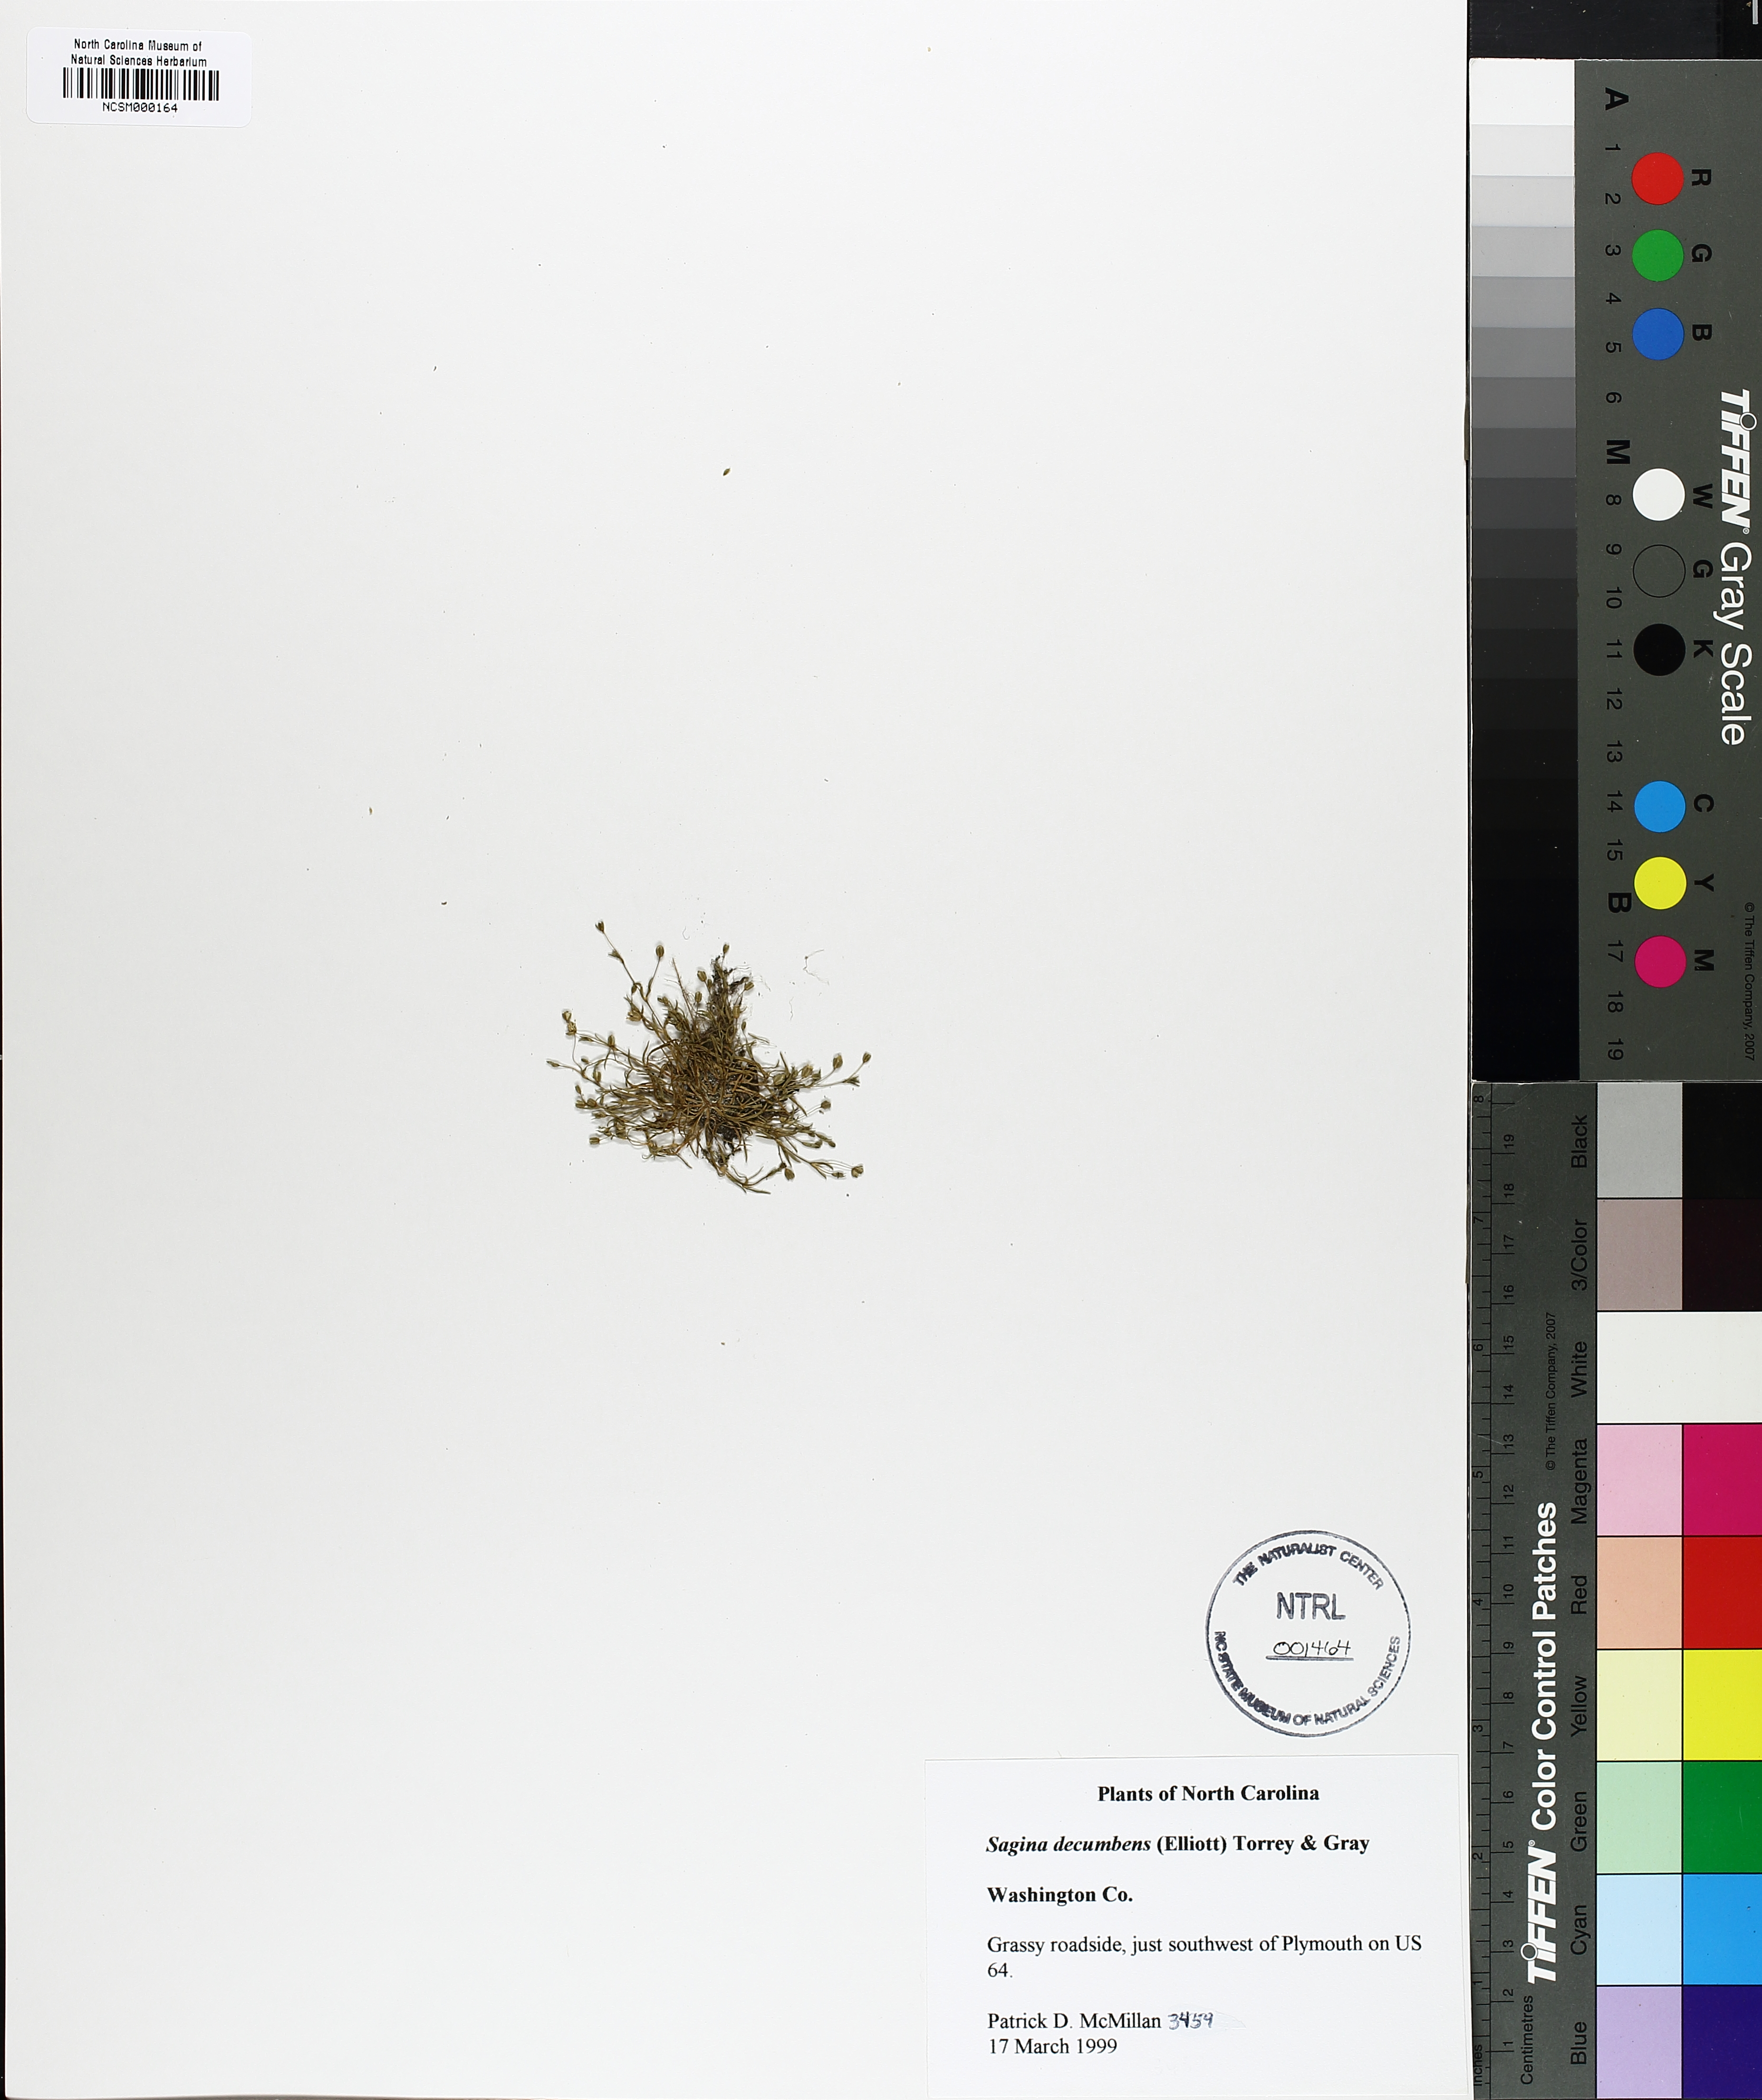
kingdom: Plantae
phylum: Tracheophyta
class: Magnoliopsida
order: Caryophyllales
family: Caryophyllaceae
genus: Sagina
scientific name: Sagina decumbens
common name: Decumbent pearlwort
